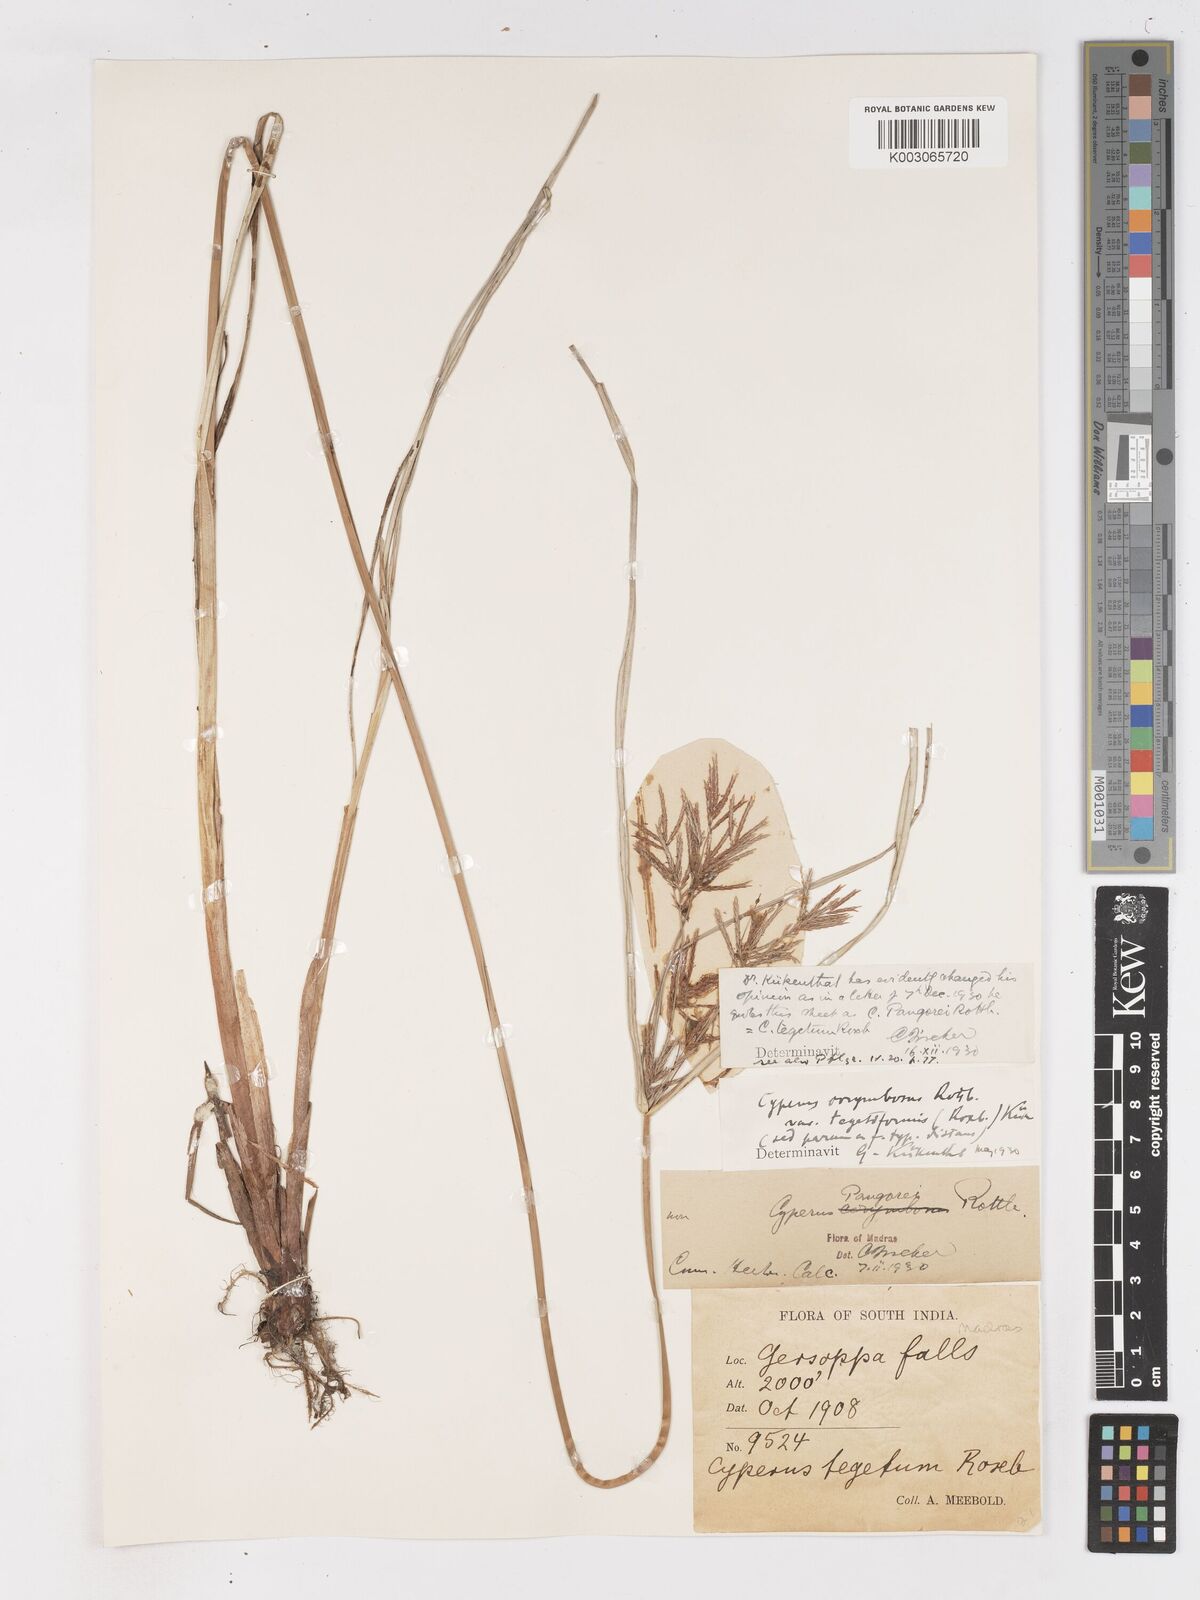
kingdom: Plantae
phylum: Tracheophyta
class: Liliopsida
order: Poales
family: Cyperaceae
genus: Cyperus
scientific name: Cyperus pangorei
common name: Mat sedge
